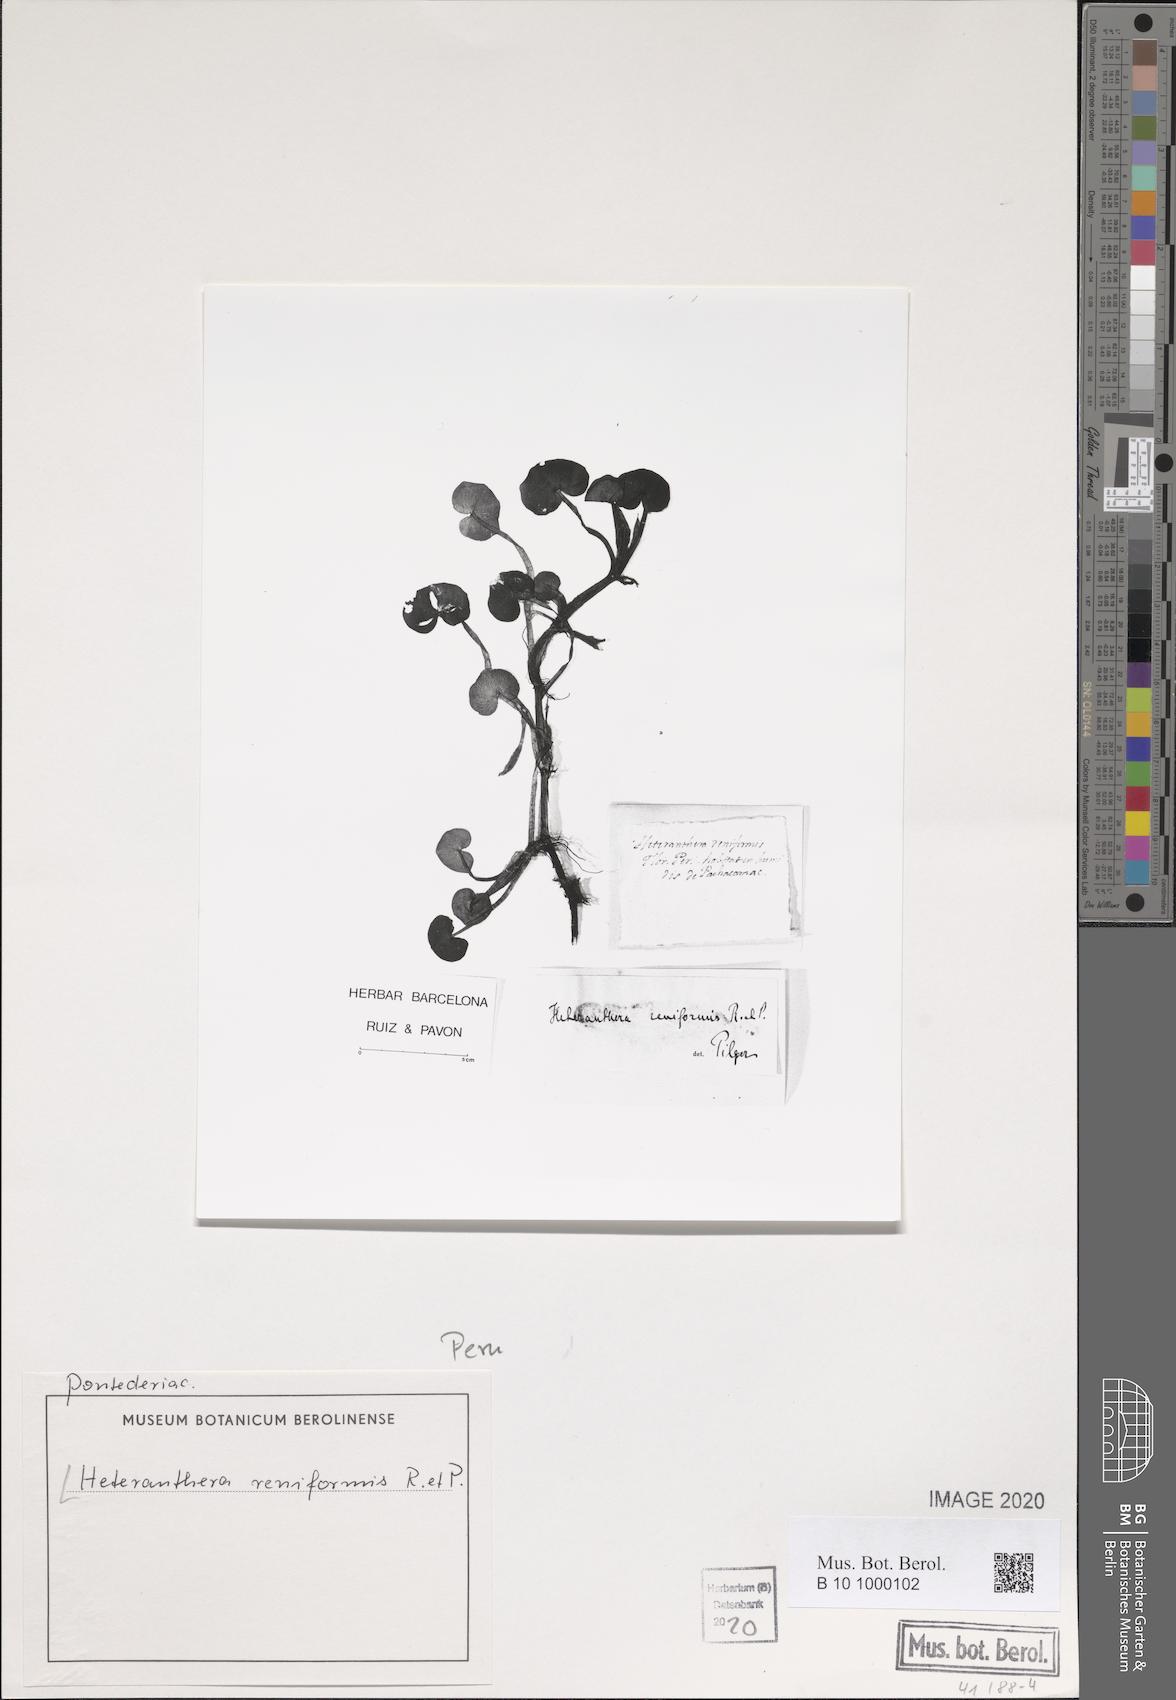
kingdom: Plantae
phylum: Tracheophyta
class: Liliopsida
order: Commelinales
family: Pontederiaceae
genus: Heteranthera
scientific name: Heteranthera reniformis
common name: Kidneyleaf mudplantain
